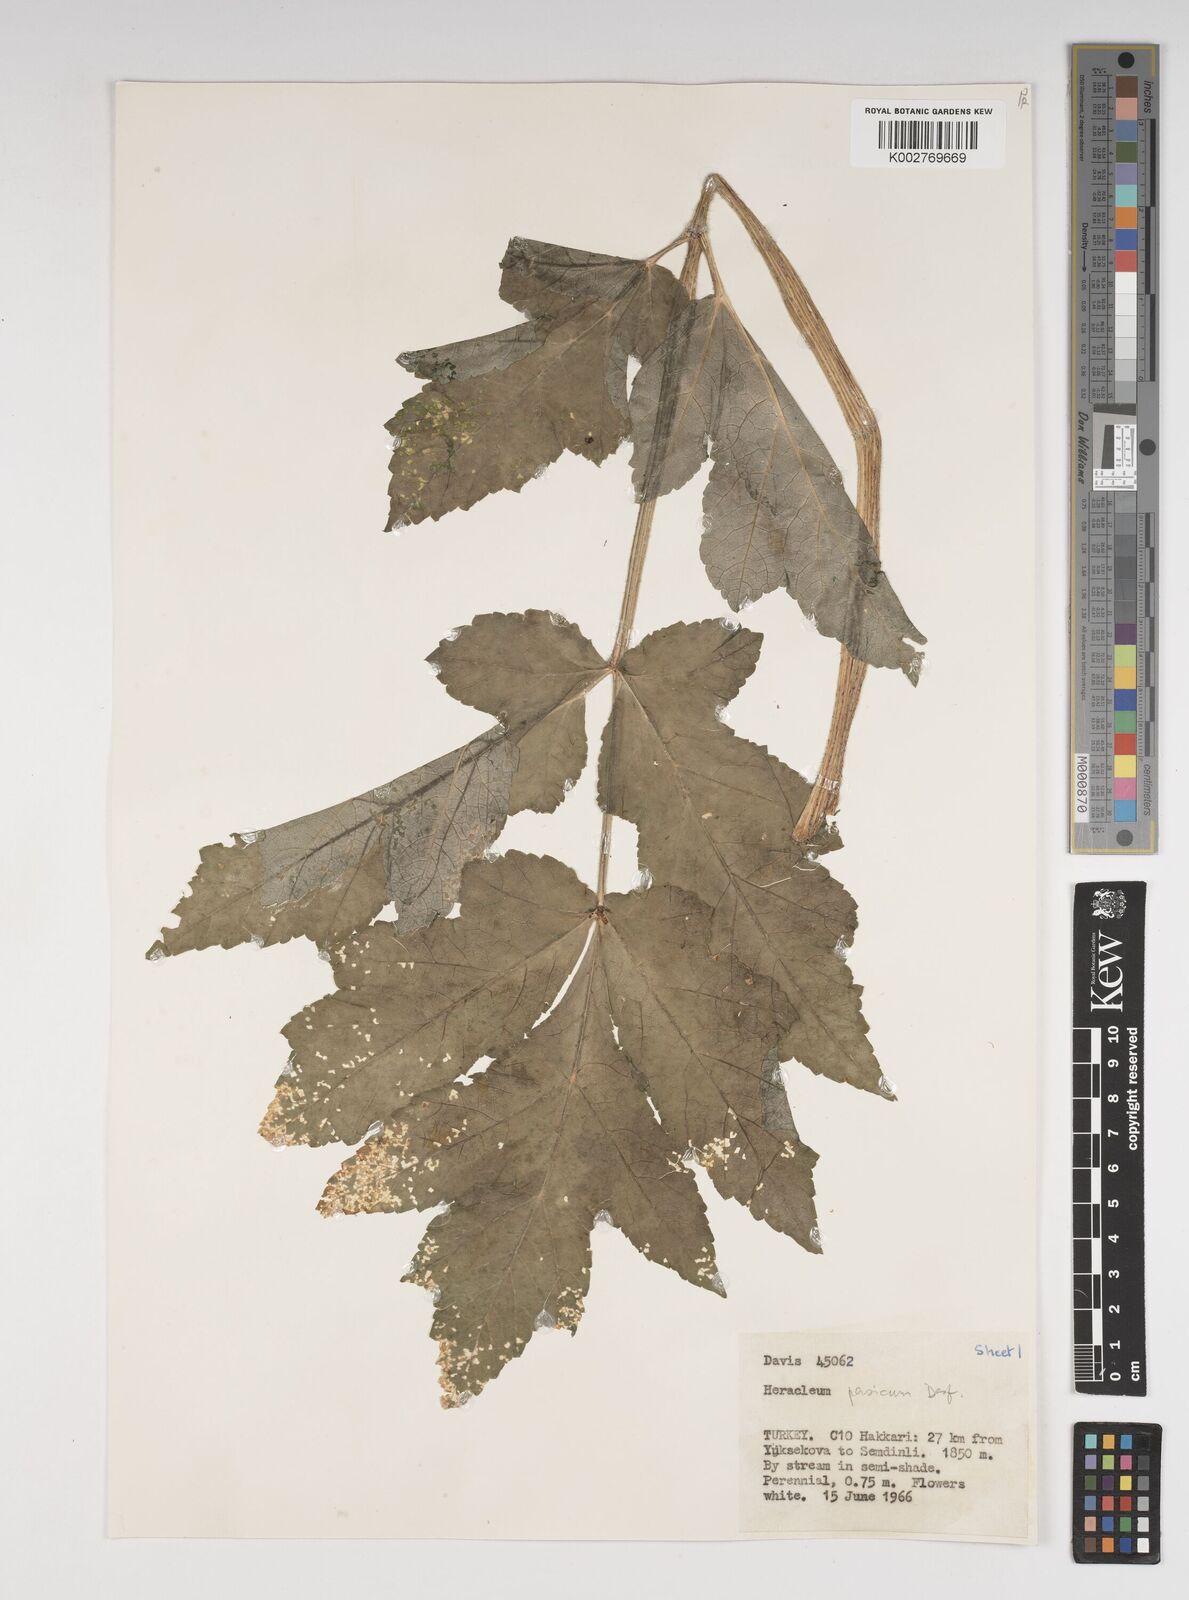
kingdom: Plantae
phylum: Tracheophyta
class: Magnoliopsida
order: Apiales
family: Apiaceae
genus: Heracleum
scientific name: Heracleum persicum
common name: Persian hogweed
